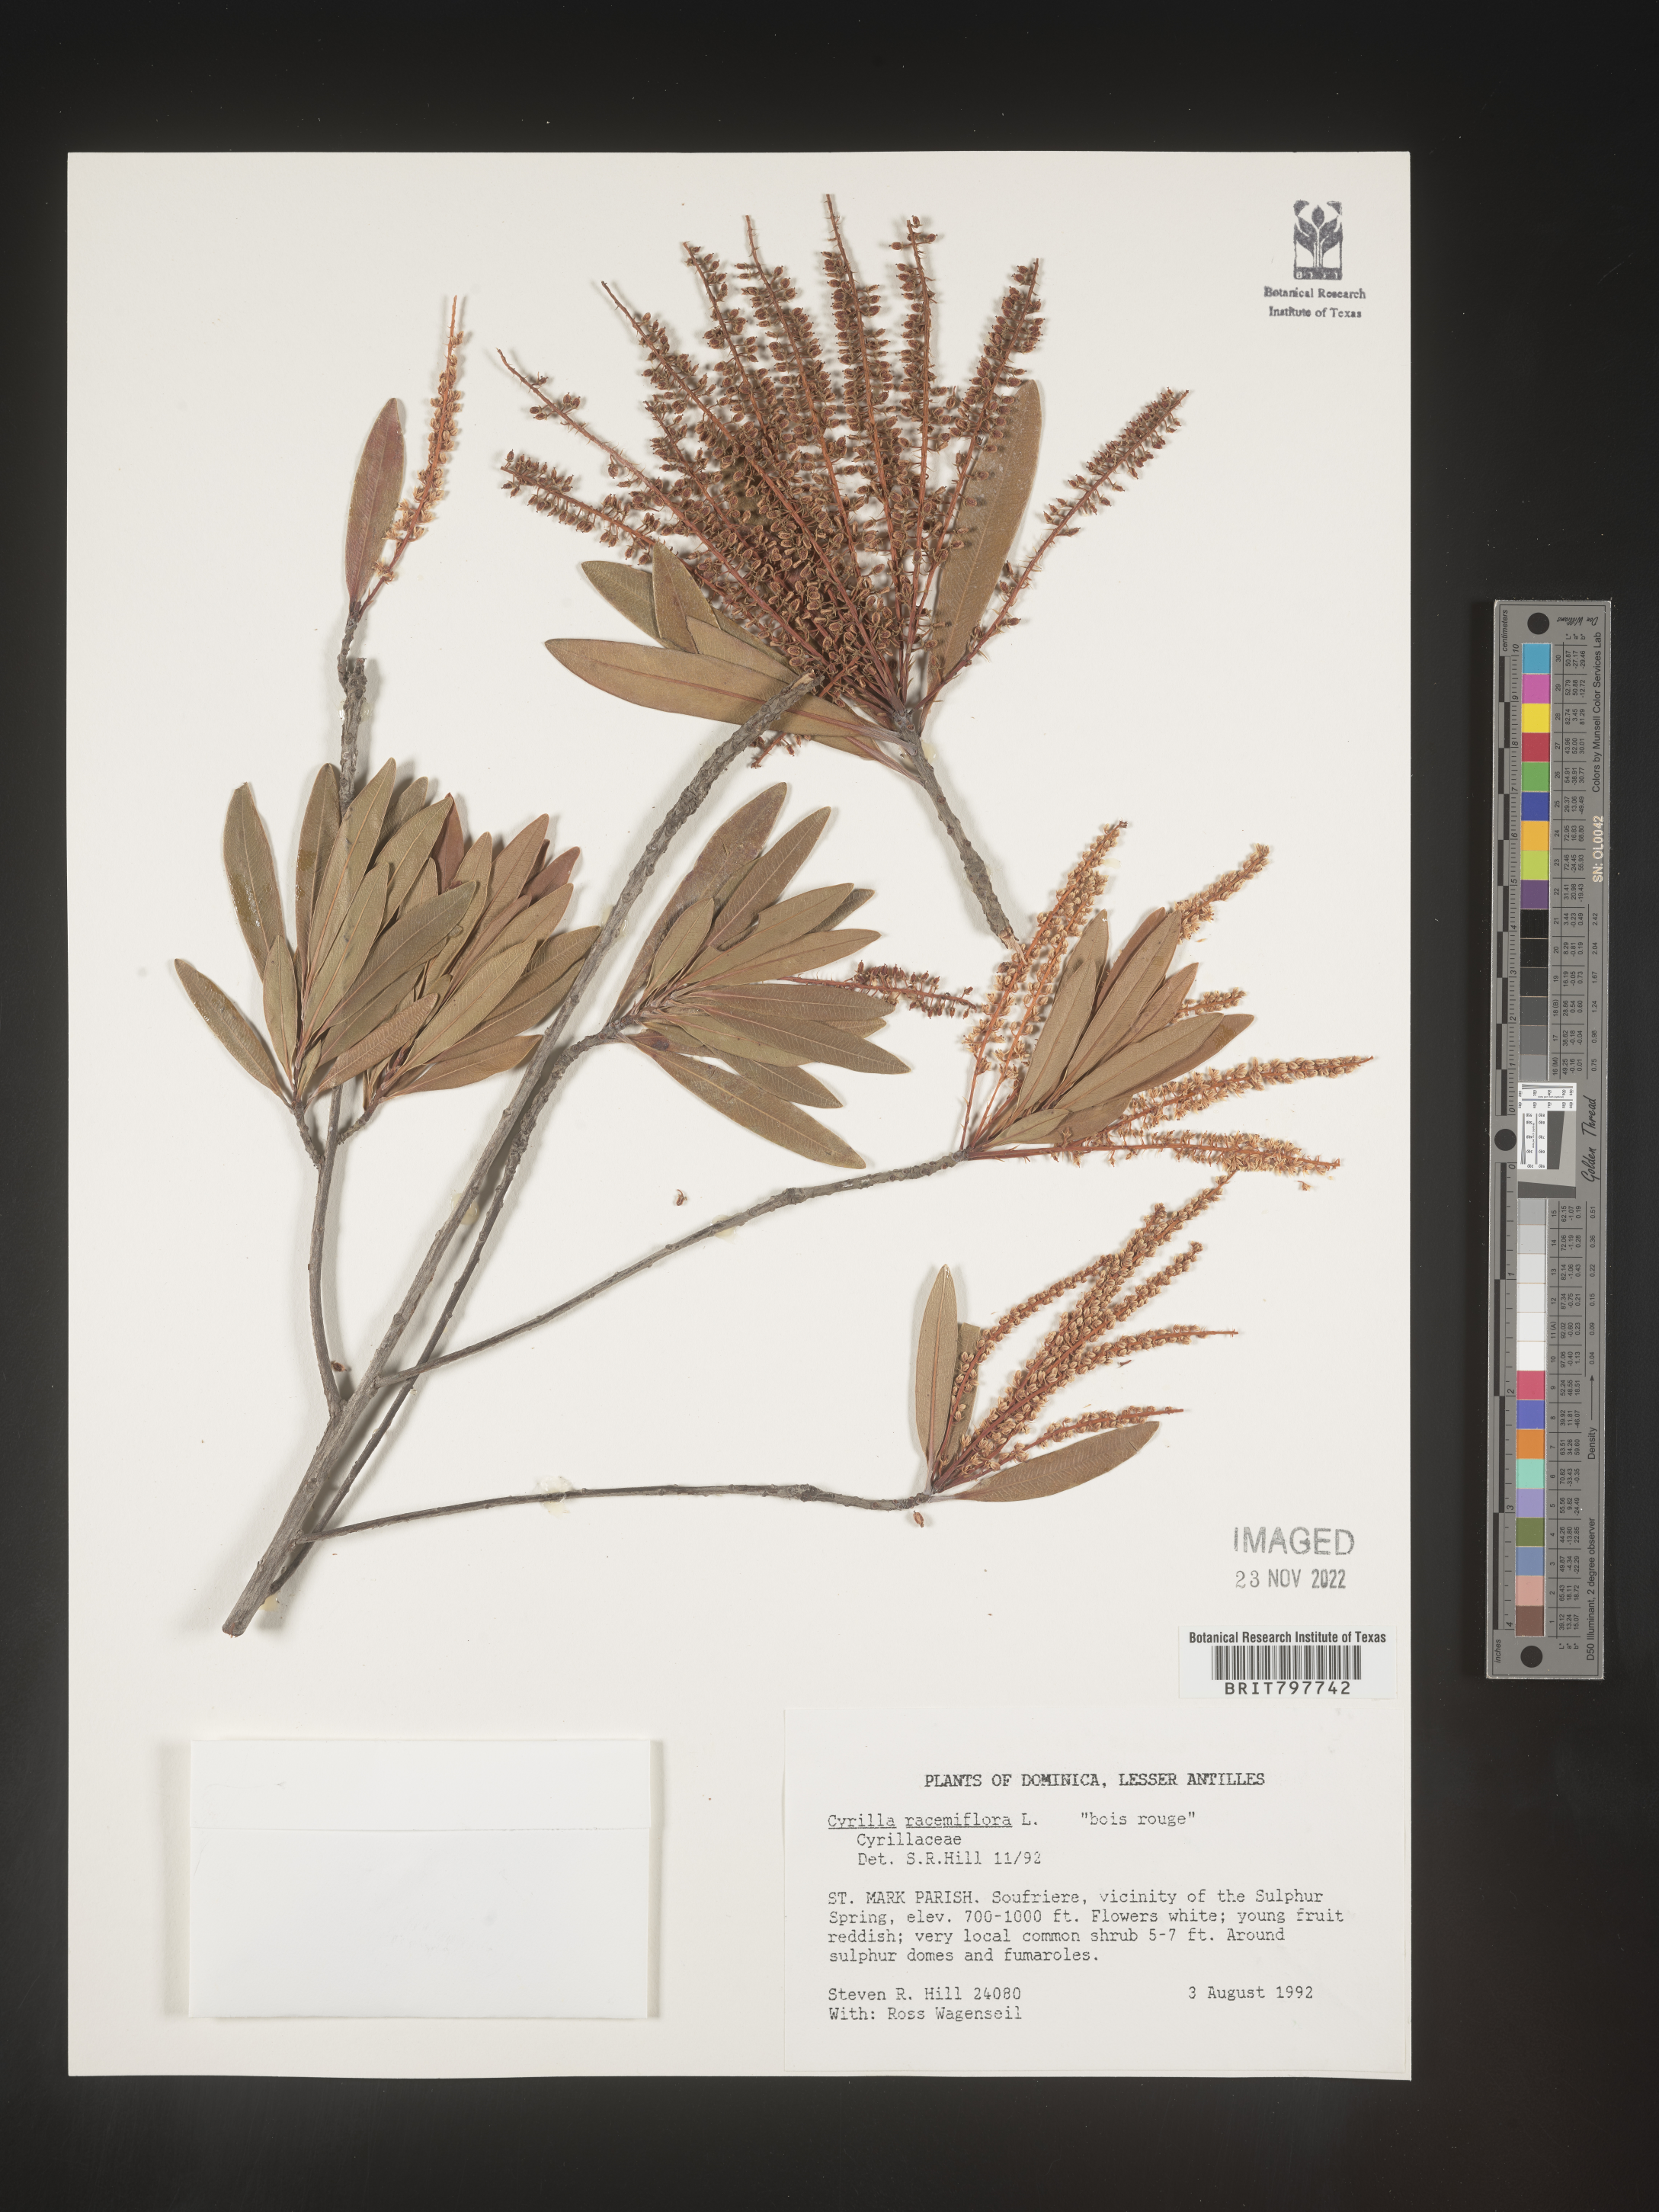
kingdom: Plantae
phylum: Tracheophyta
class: Magnoliopsida
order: Ericales
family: Cyrillaceae
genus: Cyrilla
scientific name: Cyrilla
